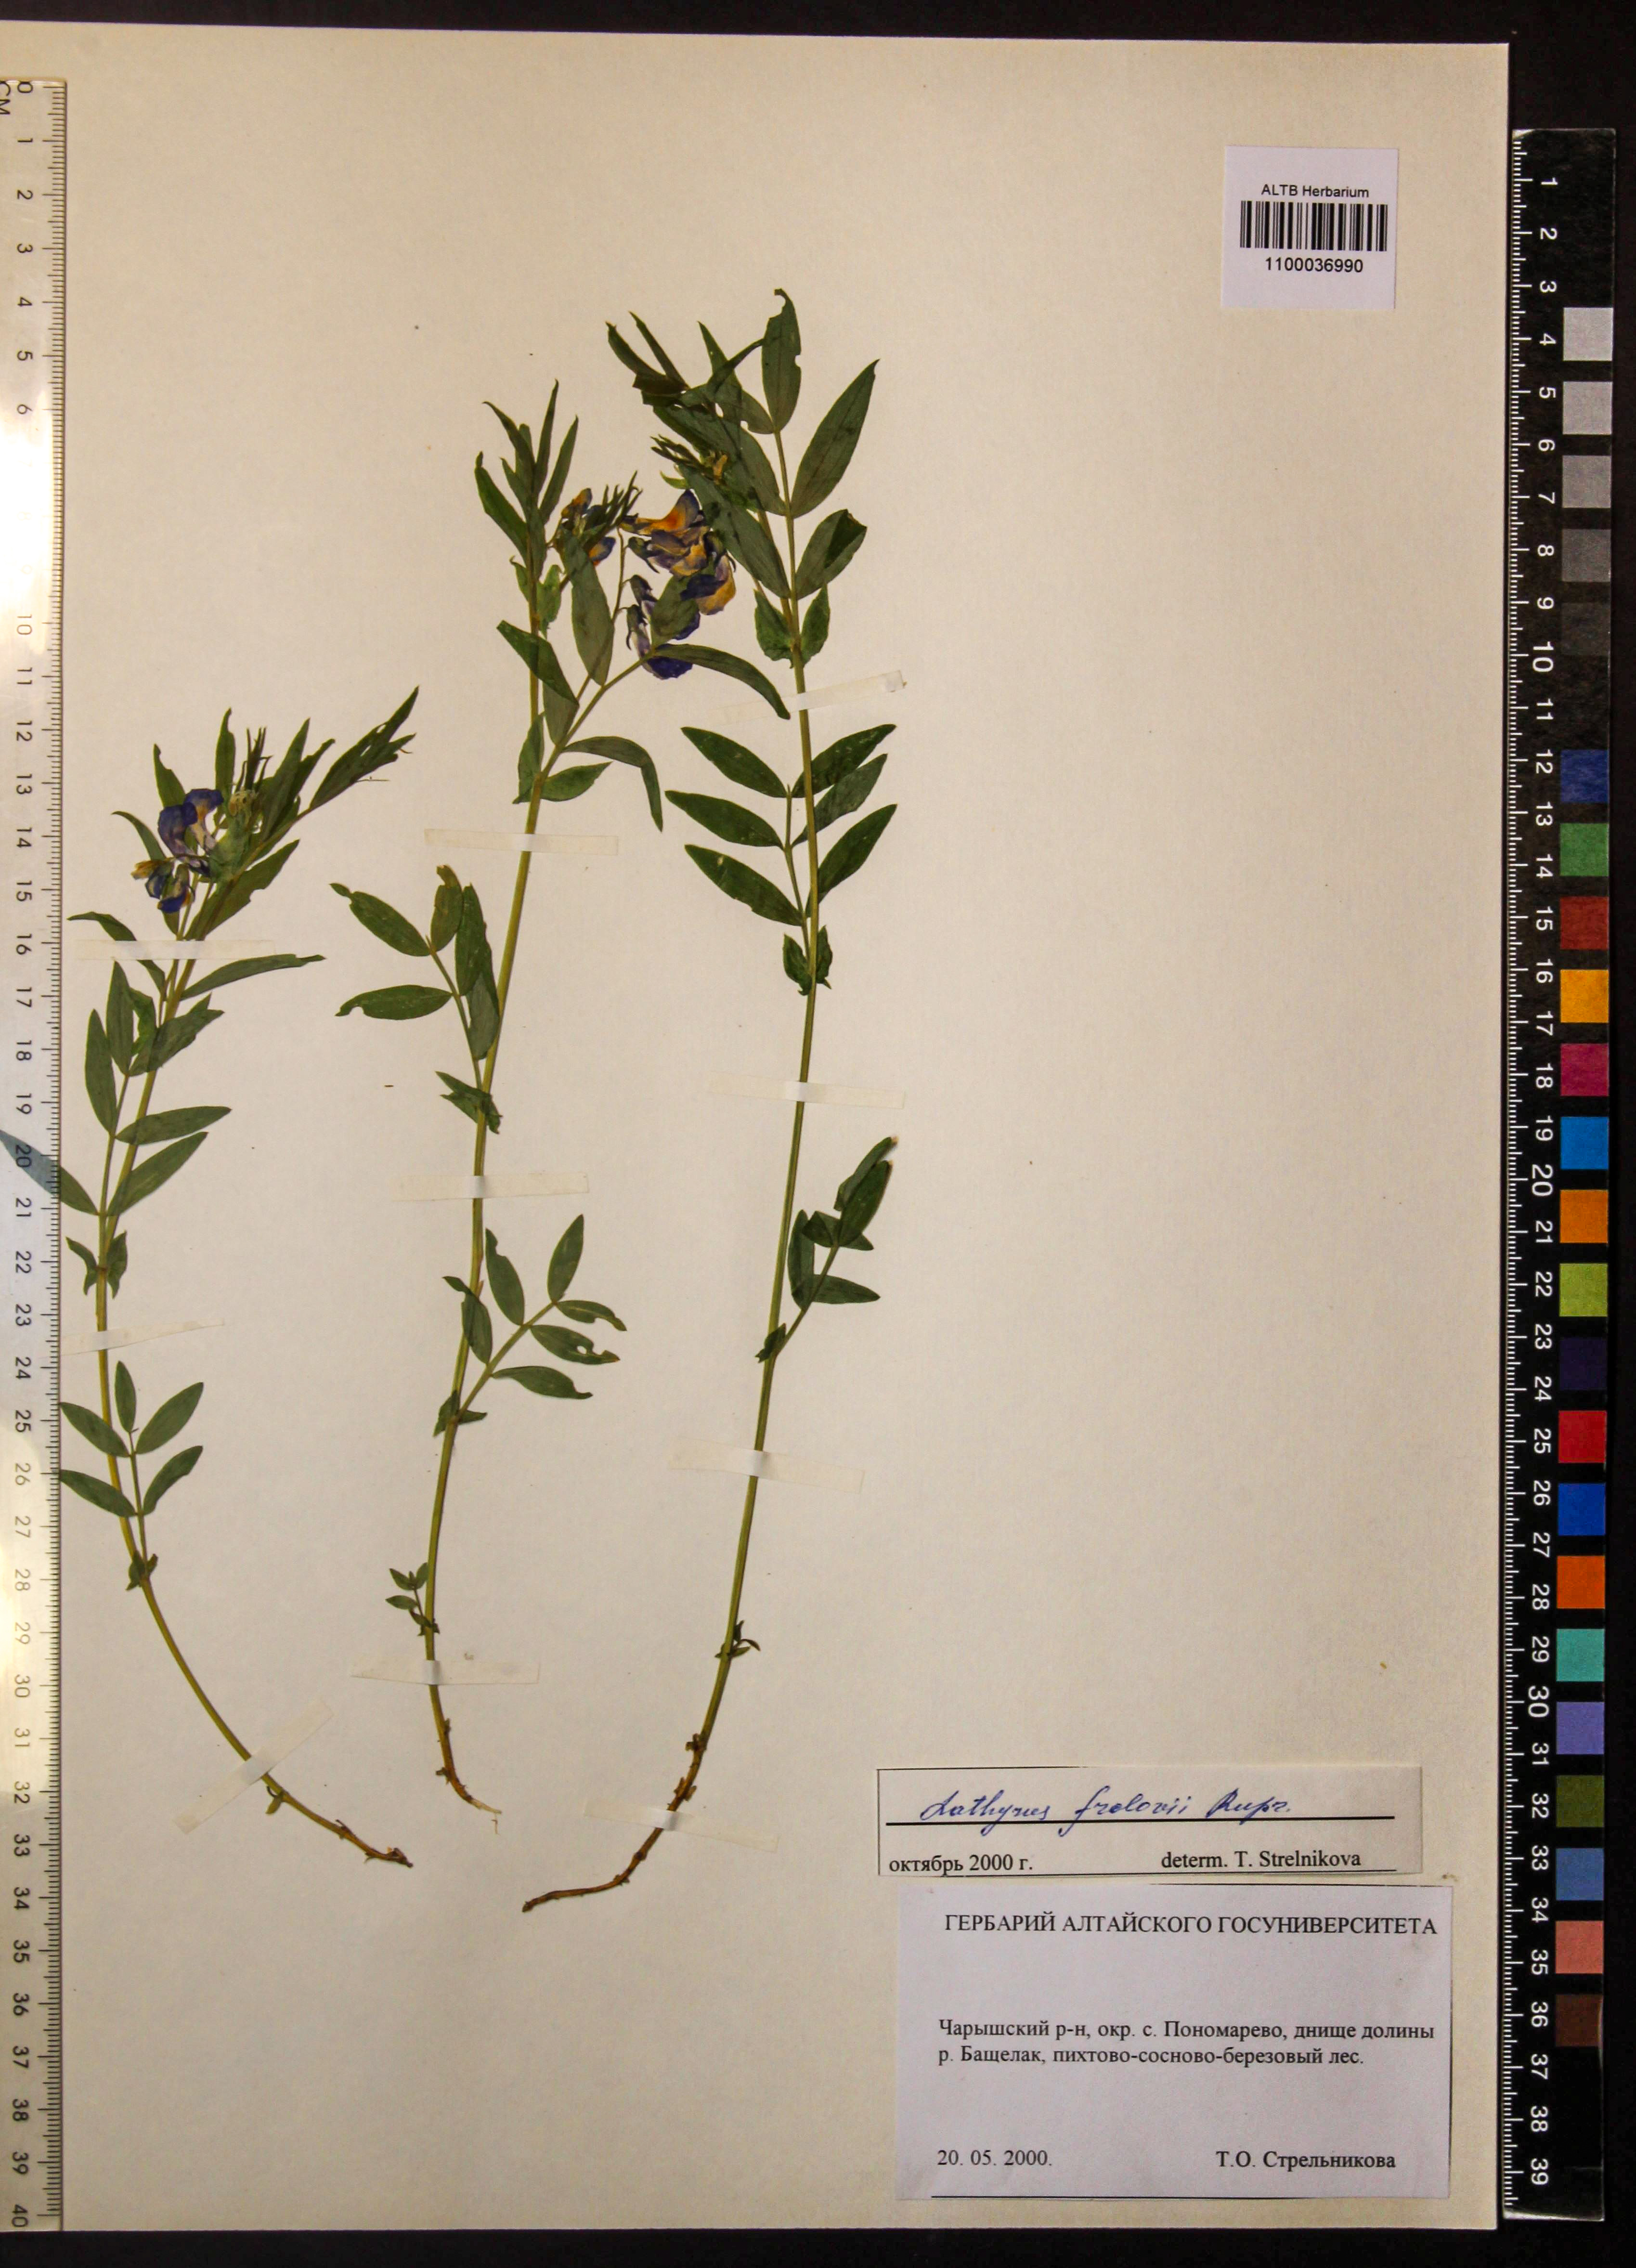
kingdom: Plantae
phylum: Tracheophyta
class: Magnoliopsida
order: Fabales
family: Fabaceae
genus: Lathyrus
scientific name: Lathyrus frolovii
